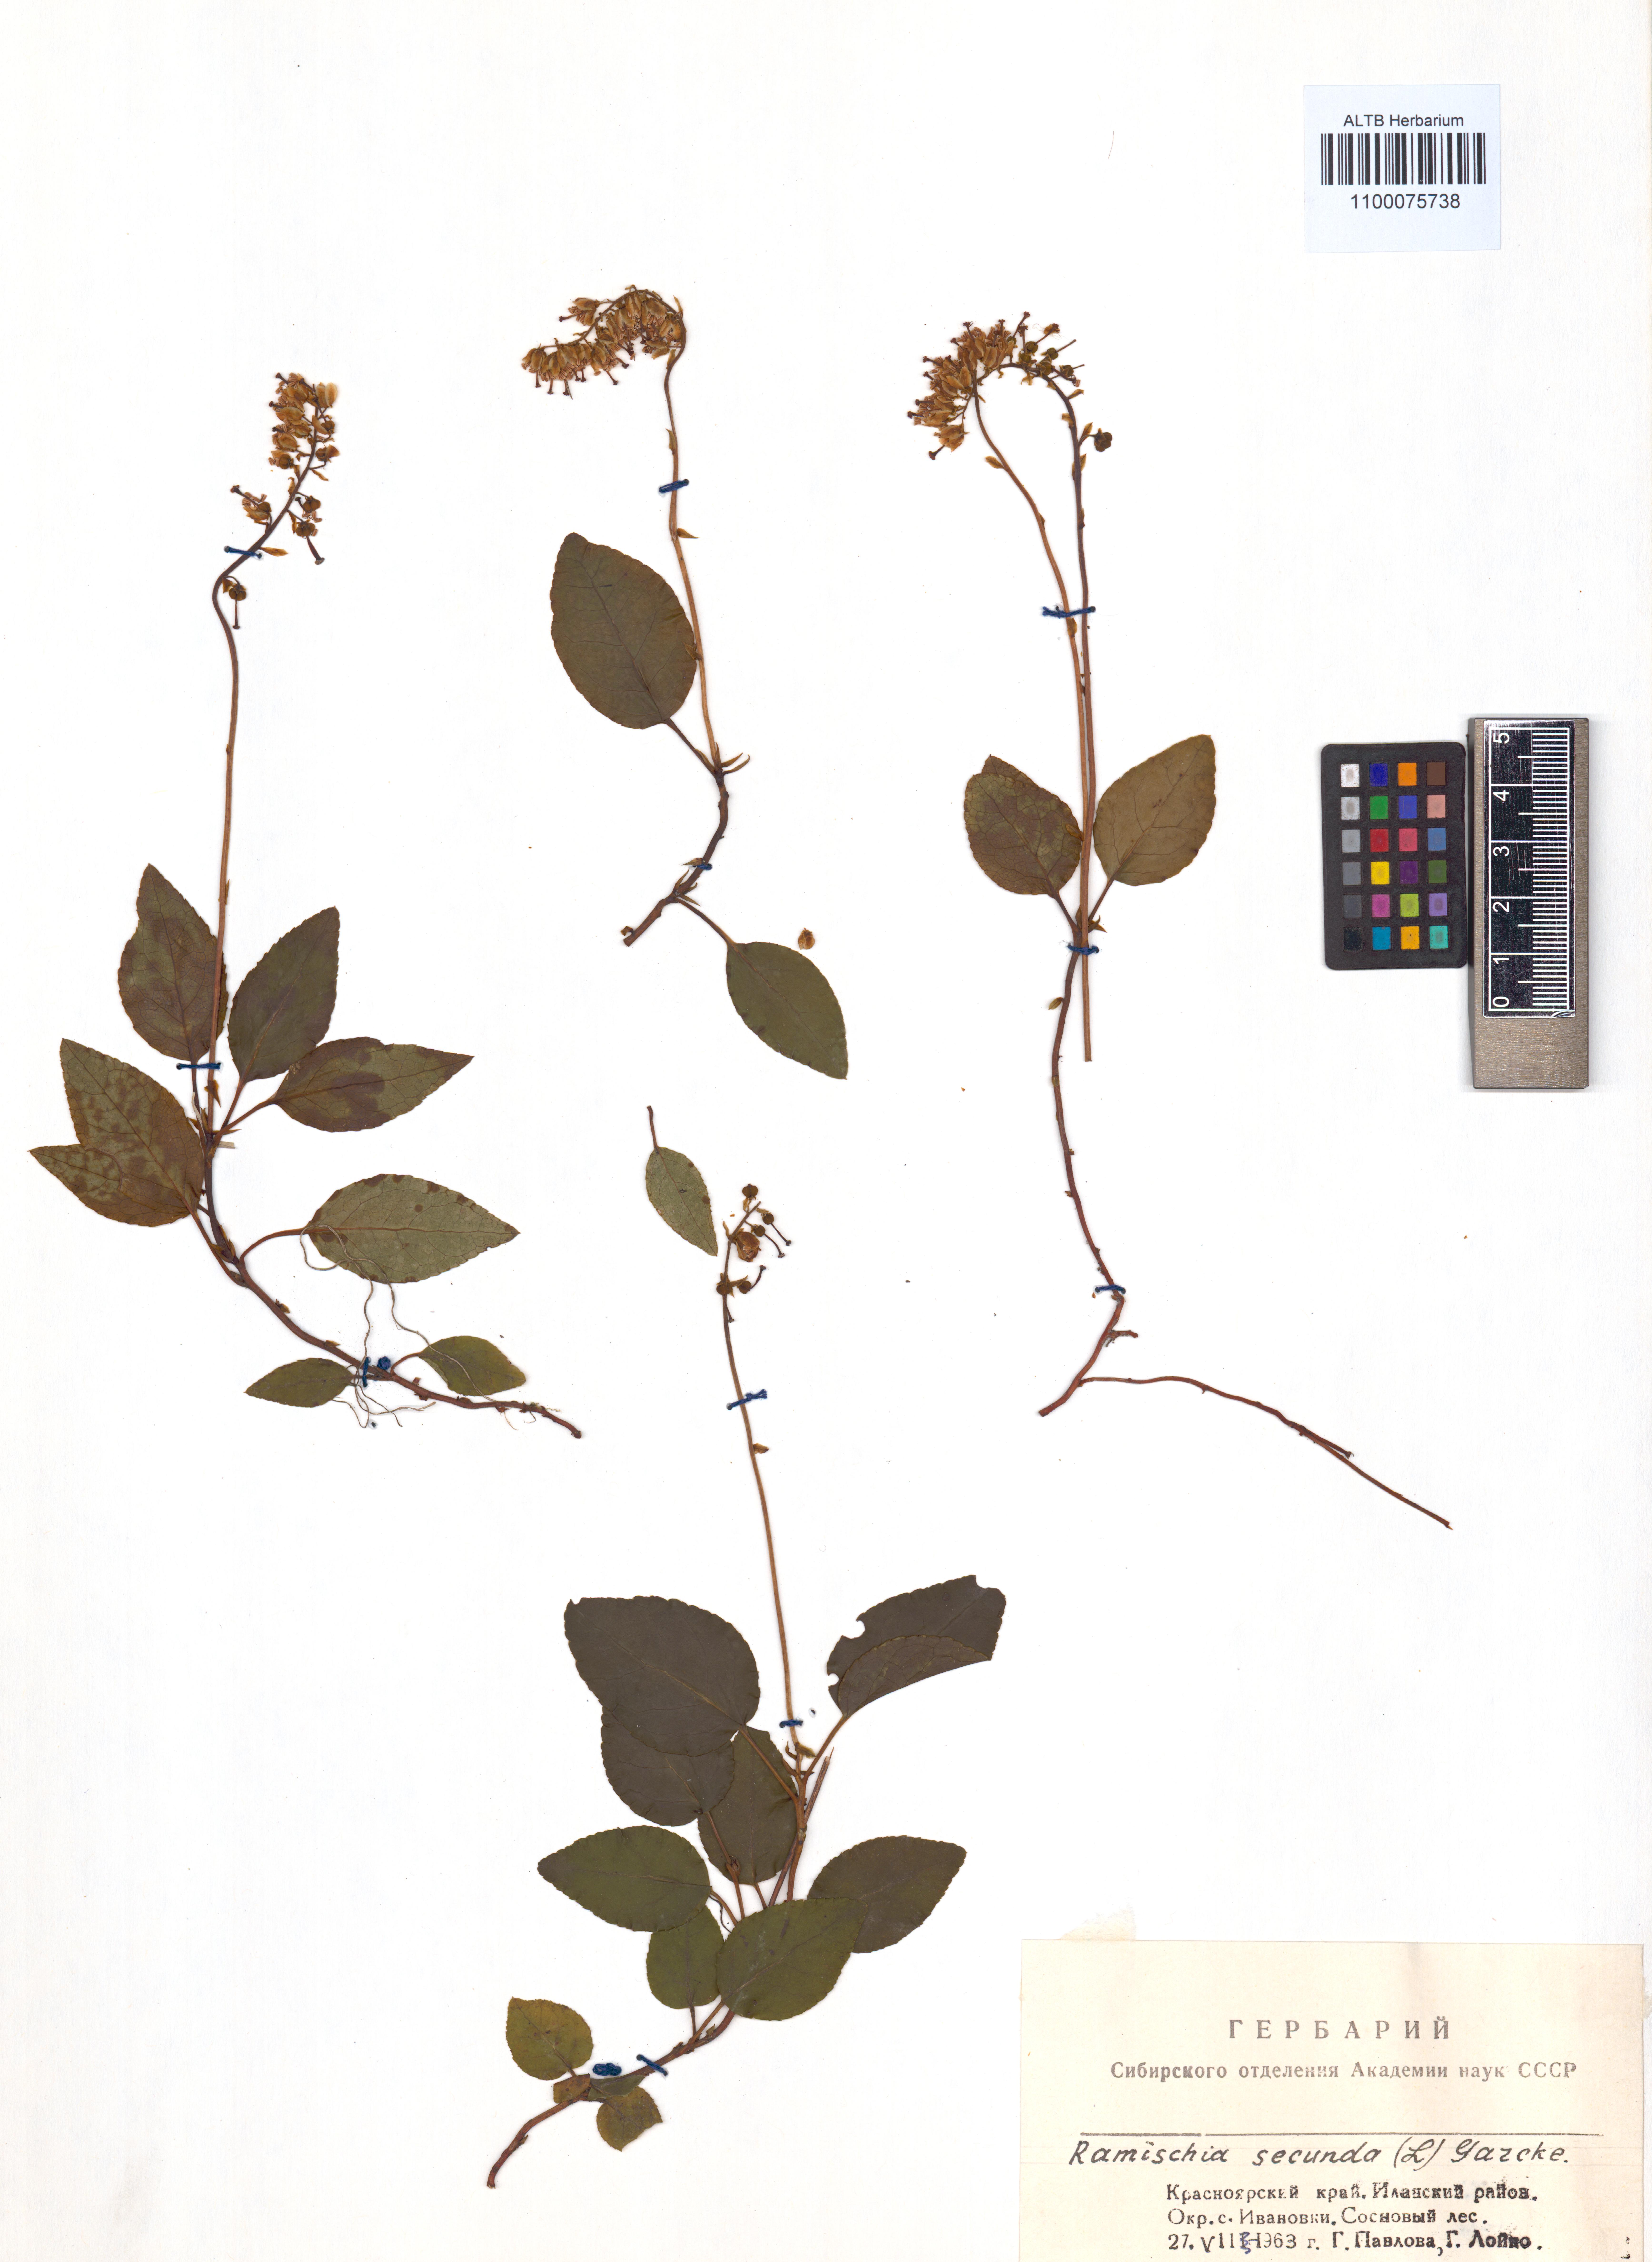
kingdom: Plantae
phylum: Tracheophyta
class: Magnoliopsida
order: Ericales
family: Ericaceae
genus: Orthilia
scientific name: Orthilia secunda
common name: One-sided orthilia
